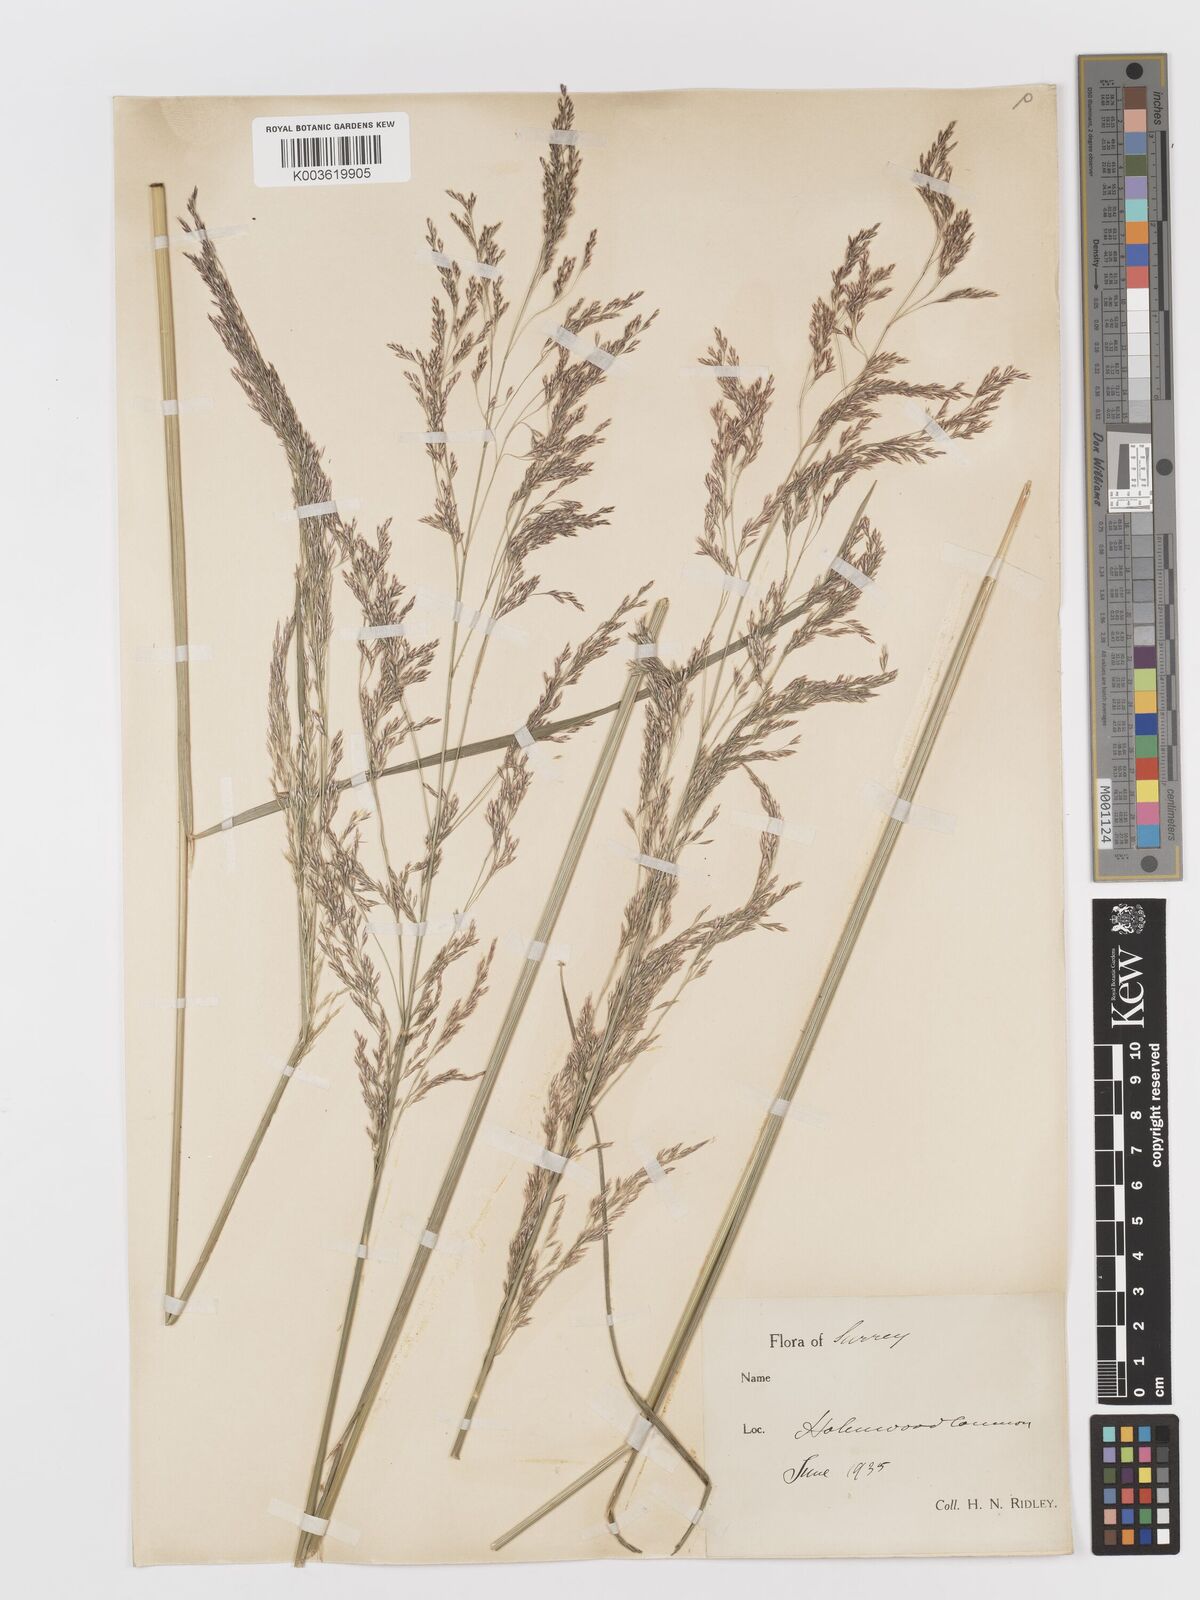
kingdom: Plantae
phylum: Tracheophyta
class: Liliopsida
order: Poales
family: Poaceae
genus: Deschampsia
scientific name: Deschampsia
